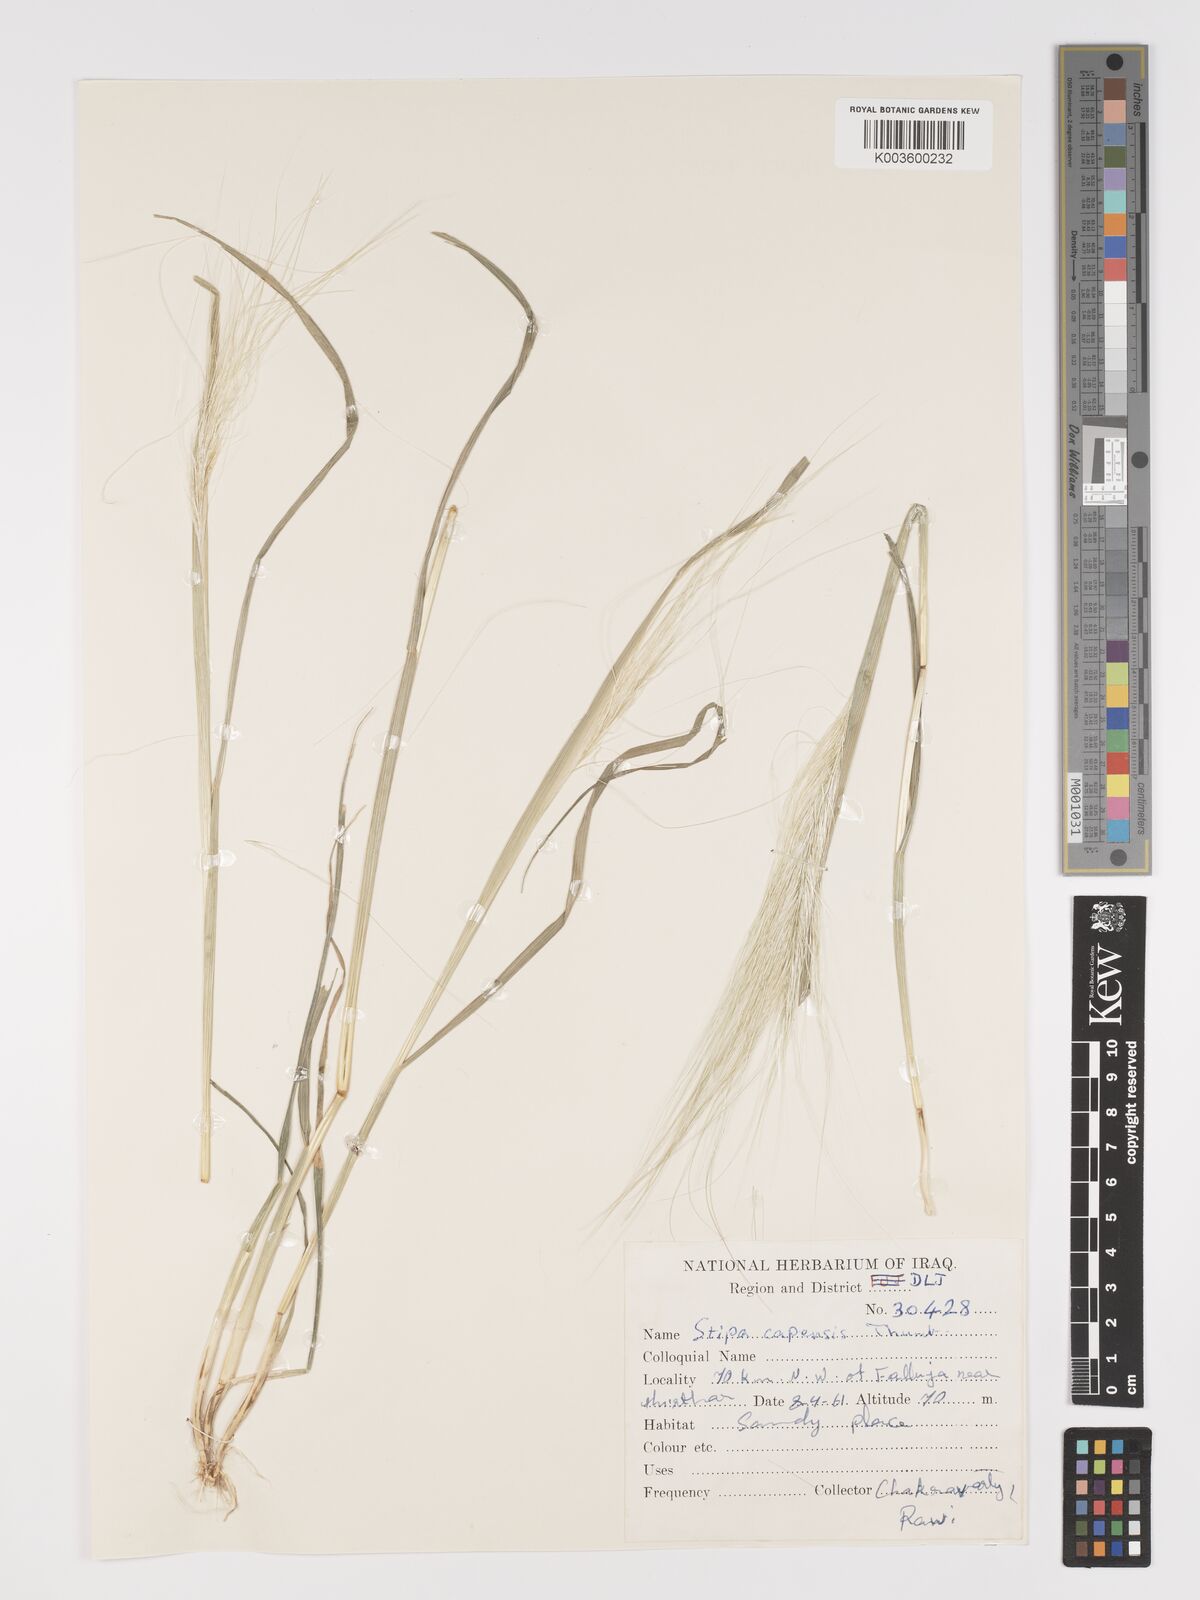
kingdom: Plantae
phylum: Tracheophyta
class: Liliopsida
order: Poales
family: Poaceae
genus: Stipellula
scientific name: Stipellula capensis
